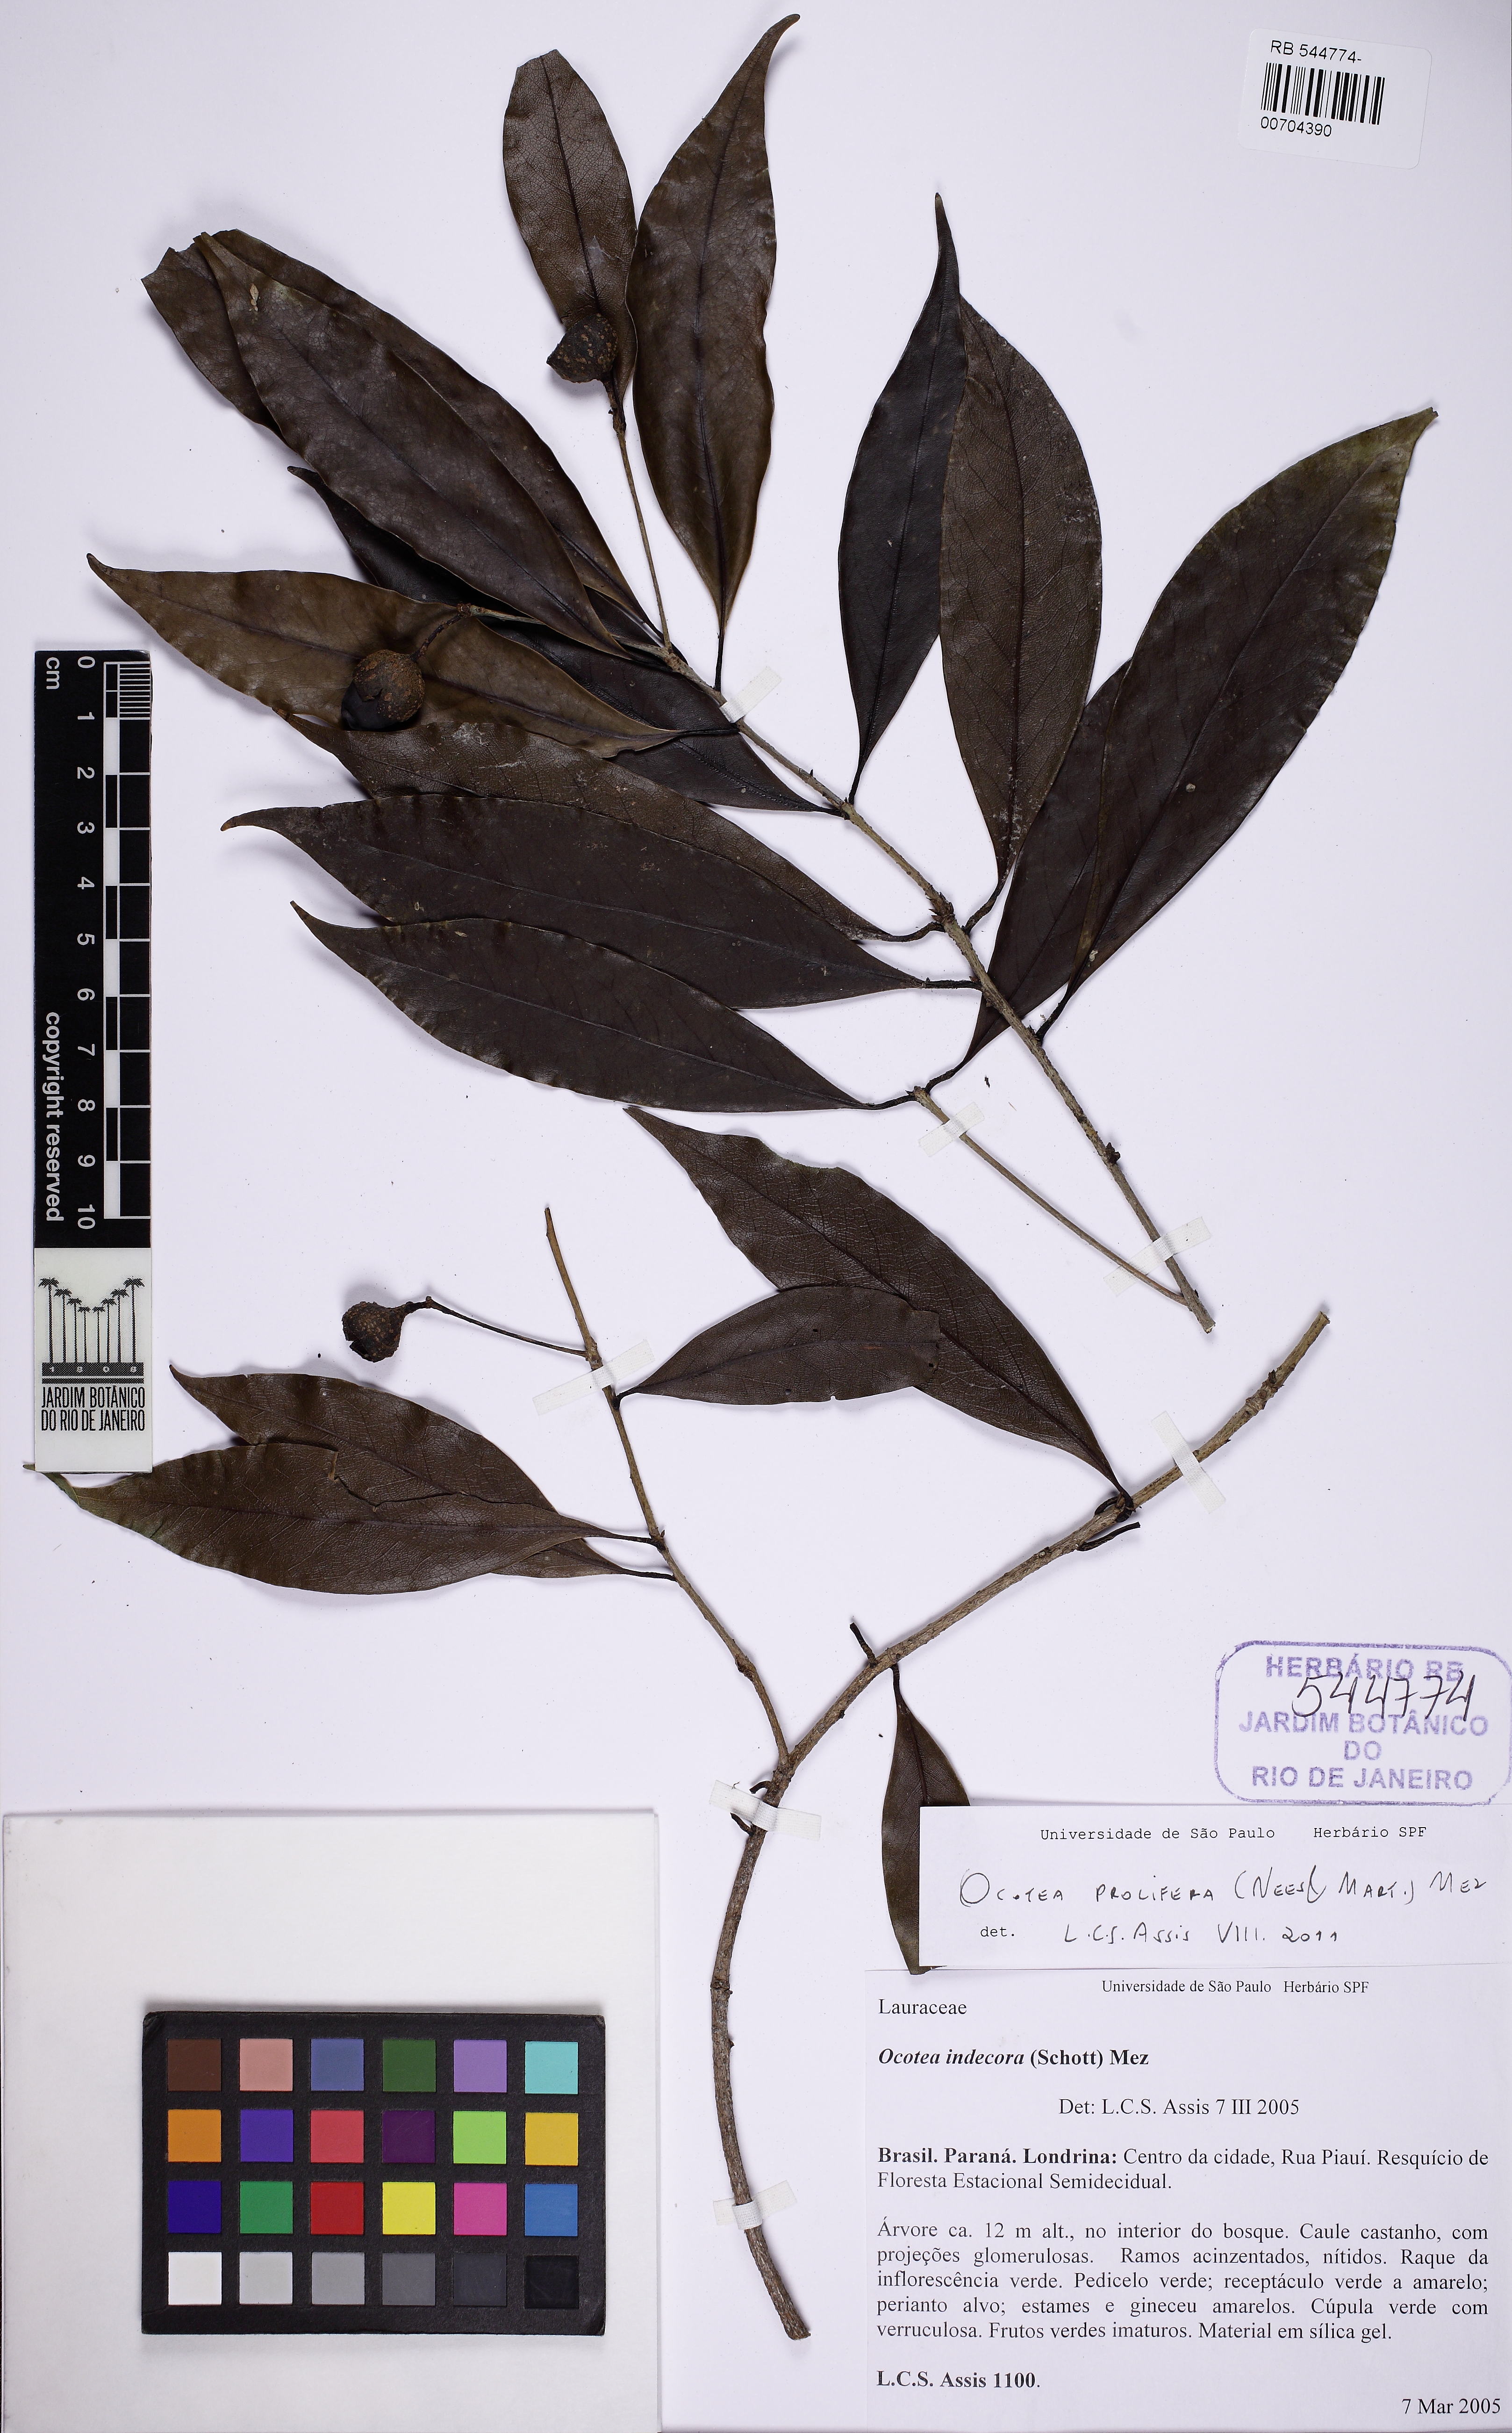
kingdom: Plantae
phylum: Tracheophyta
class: Magnoliopsida
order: Laurales
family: Lauraceae
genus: Mespilodaphne
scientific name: Mespilodaphne prolifera
